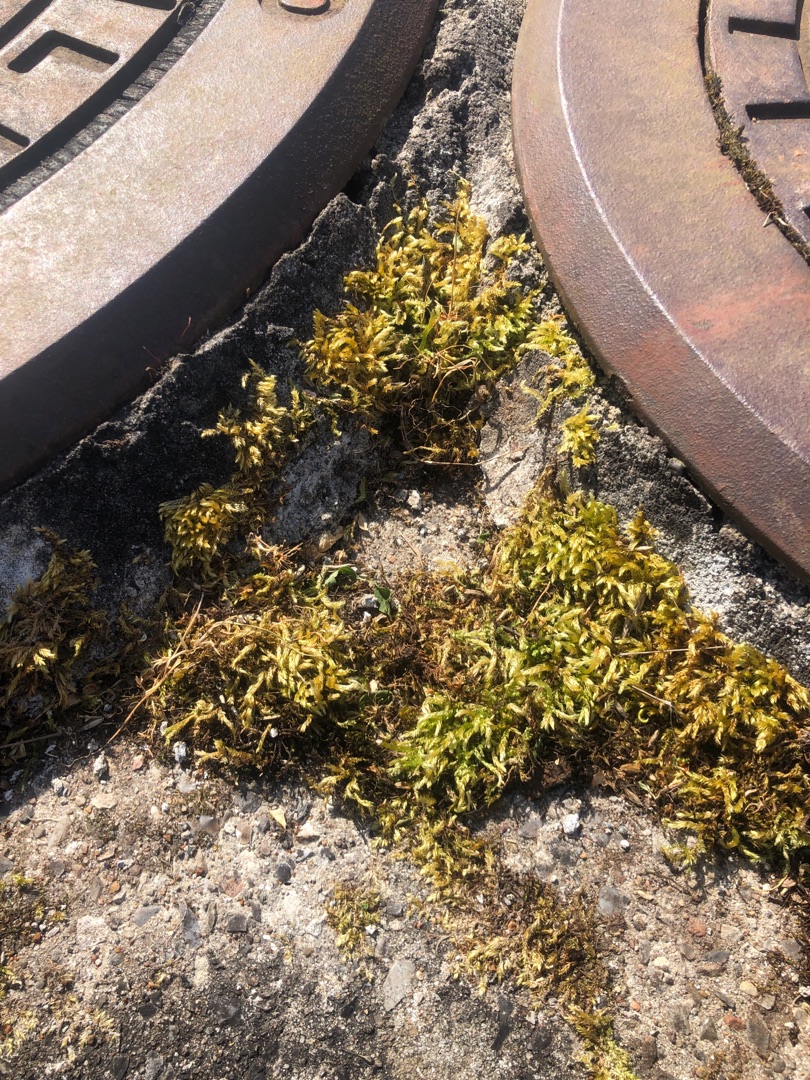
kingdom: Plantae
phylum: Bryophyta
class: Bryopsida
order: Hypnales
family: Brachytheciaceae
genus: Brachythecium
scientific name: Brachythecium rutabulum
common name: Almindelig kortkapsel
